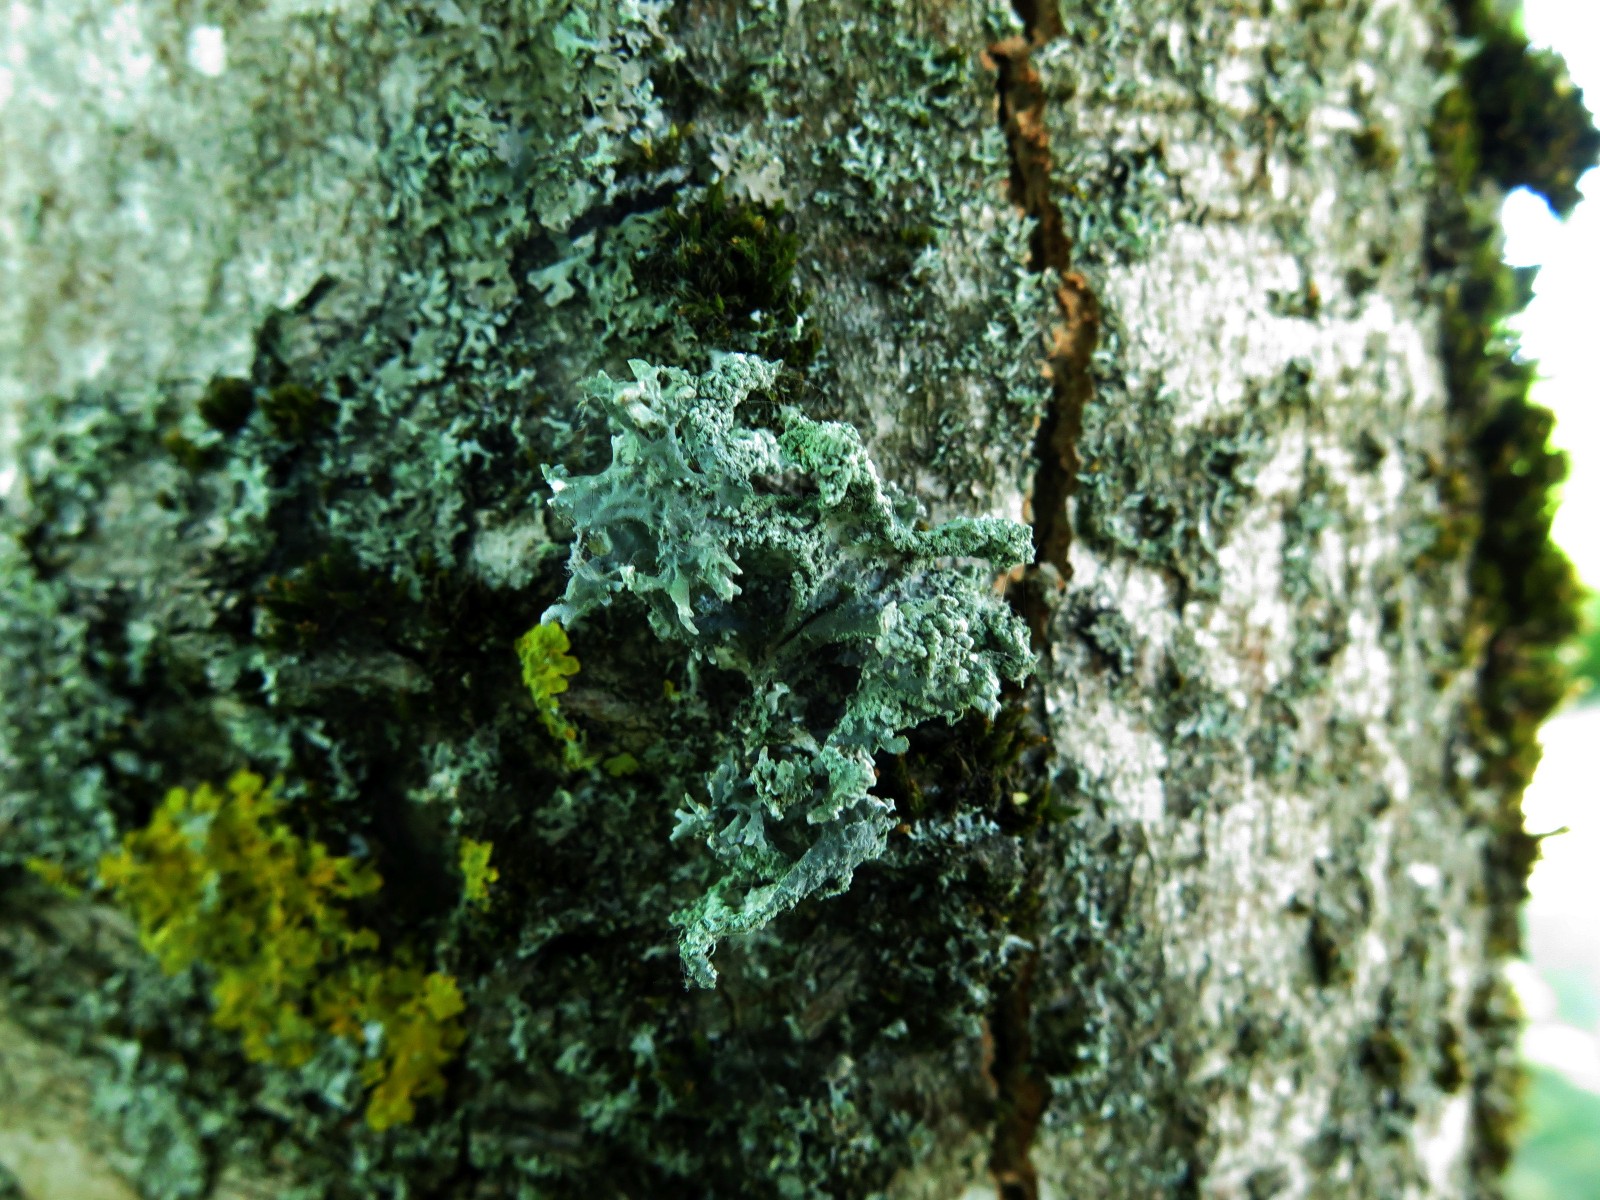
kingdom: Fungi
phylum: Ascomycota
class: Lecanoromycetes
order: Lecanorales
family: Parmeliaceae
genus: Evernia
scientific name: Evernia prunastri
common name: almindelig slåenlav
